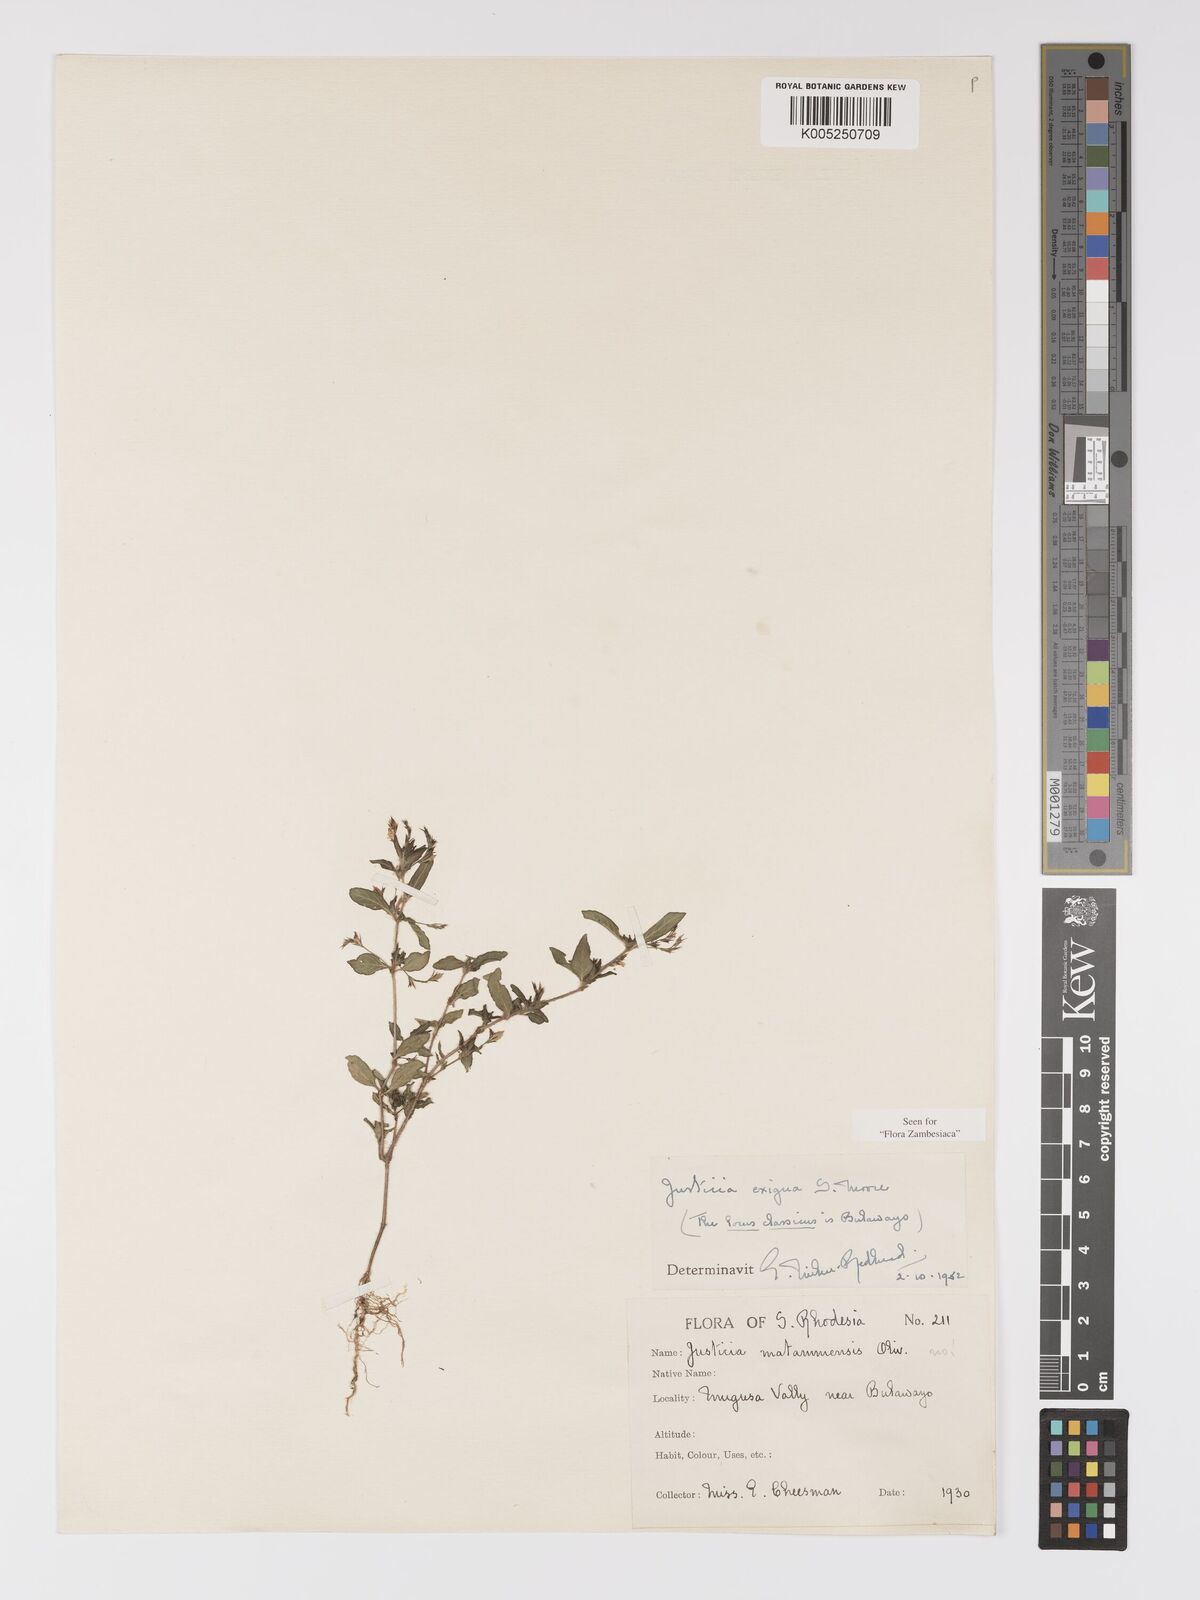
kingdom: Plantae
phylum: Tracheophyta
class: Magnoliopsida
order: Lamiales
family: Acanthaceae
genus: Justicia
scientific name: Justicia exigua
